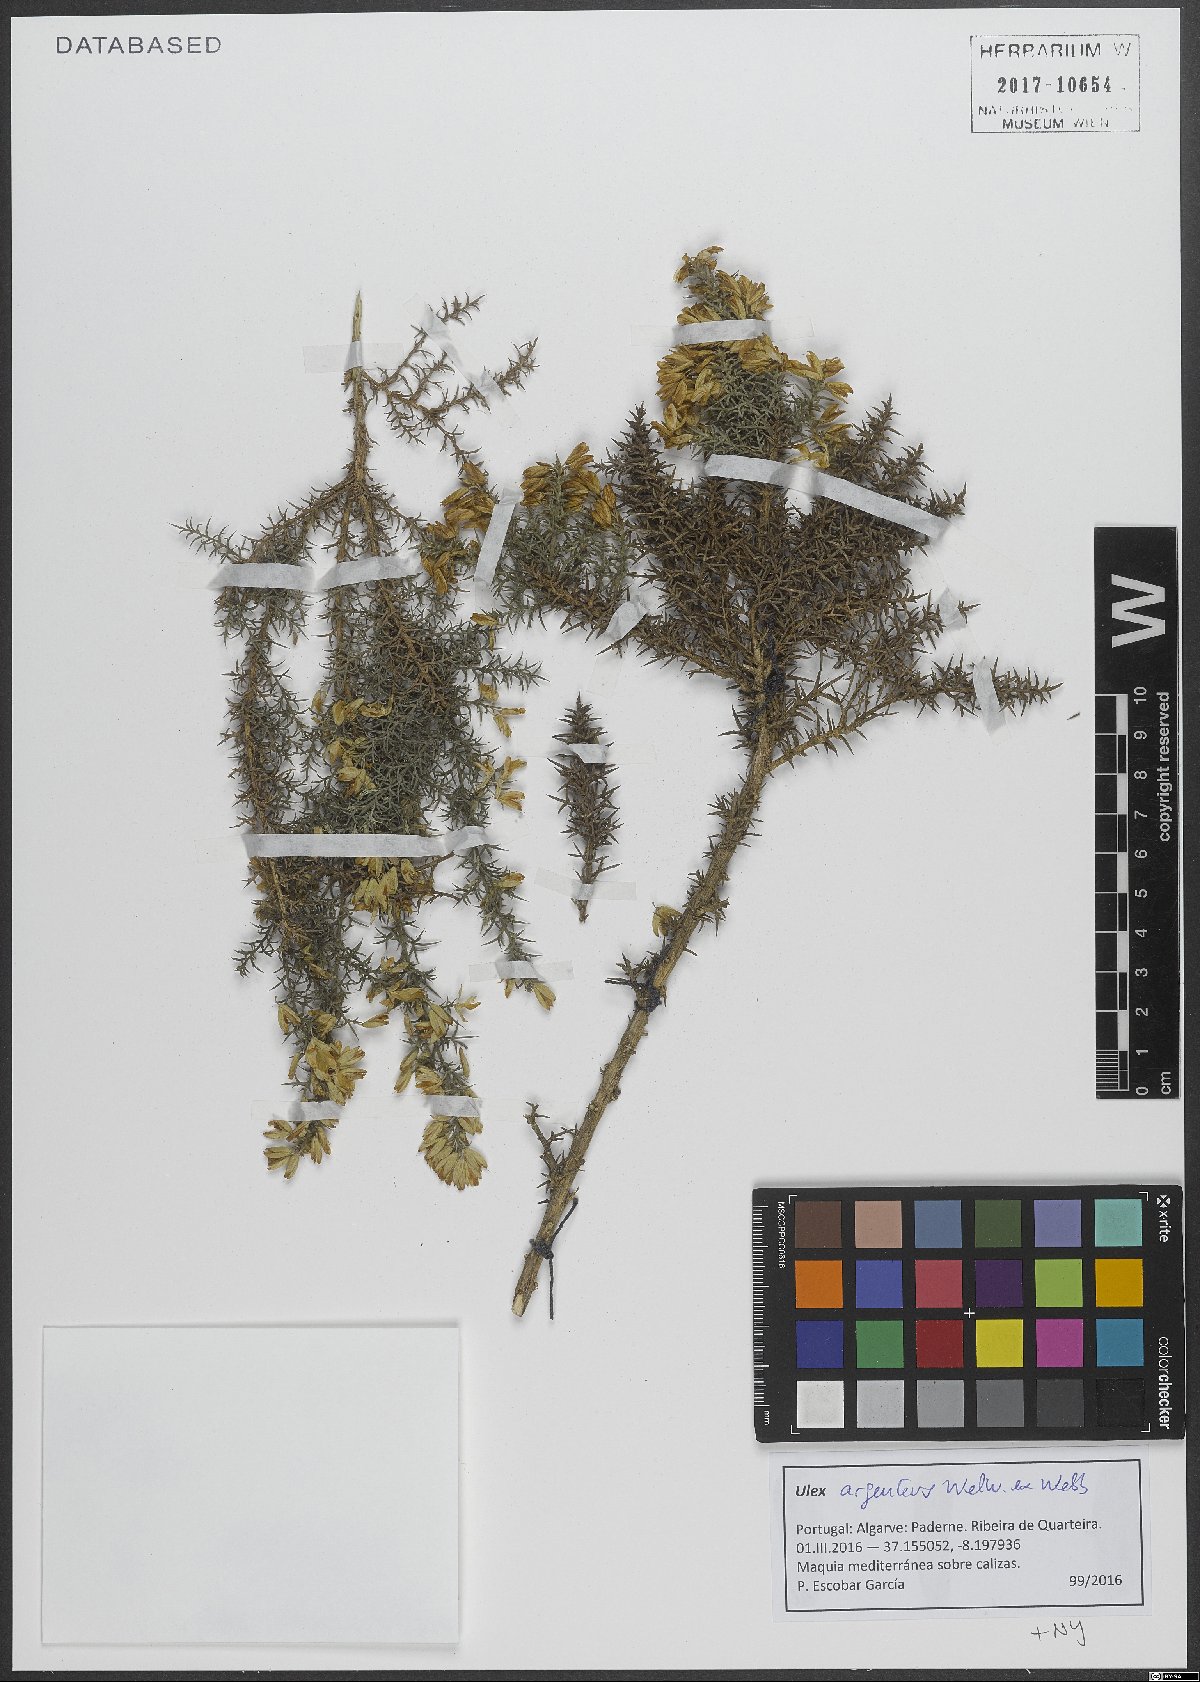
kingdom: Plantae
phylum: Tracheophyta
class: Magnoliopsida
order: Fabales
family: Fabaceae
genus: Ulex
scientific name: Ulex argenteus
